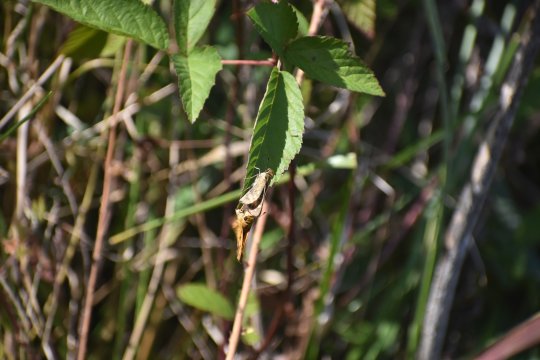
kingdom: Animalia
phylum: Arthropoda
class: Insecta
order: Lepidoptera
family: Hesperiidae
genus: Hylephila
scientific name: Hylephila phyleus
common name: Fiery Skipper
